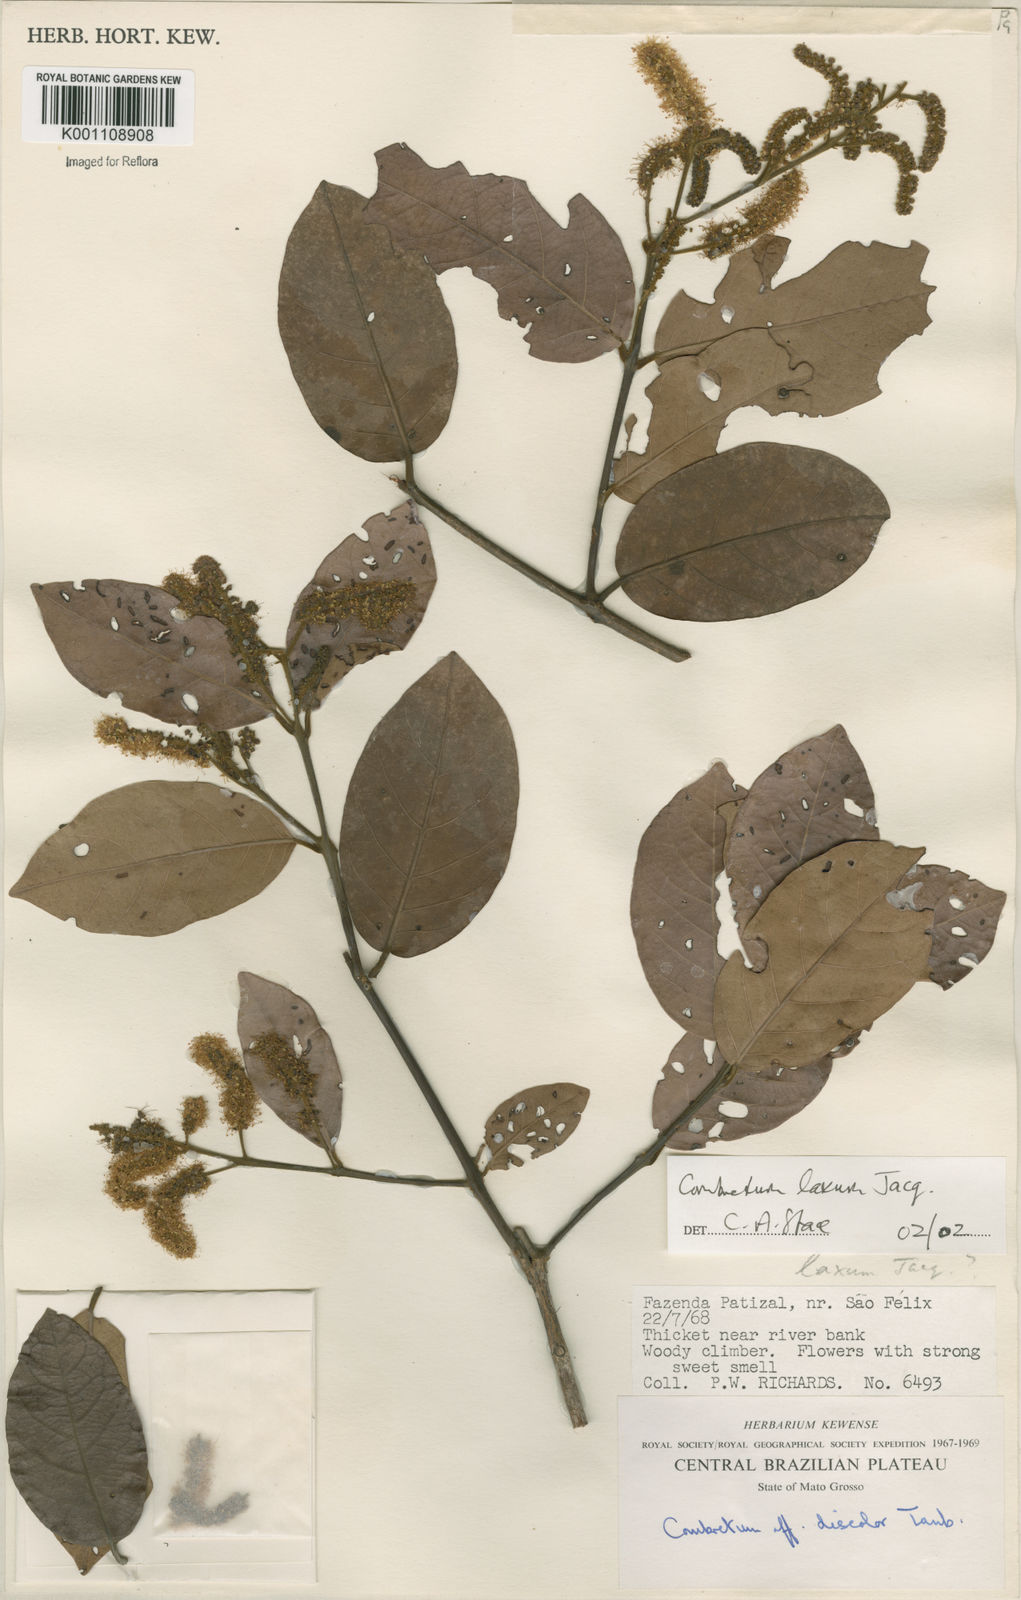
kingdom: Plantae
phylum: Tracheophyta
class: Magnoliopsida
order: Myrtales
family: Combretaceae
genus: Combretum
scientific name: Combretum laxum
